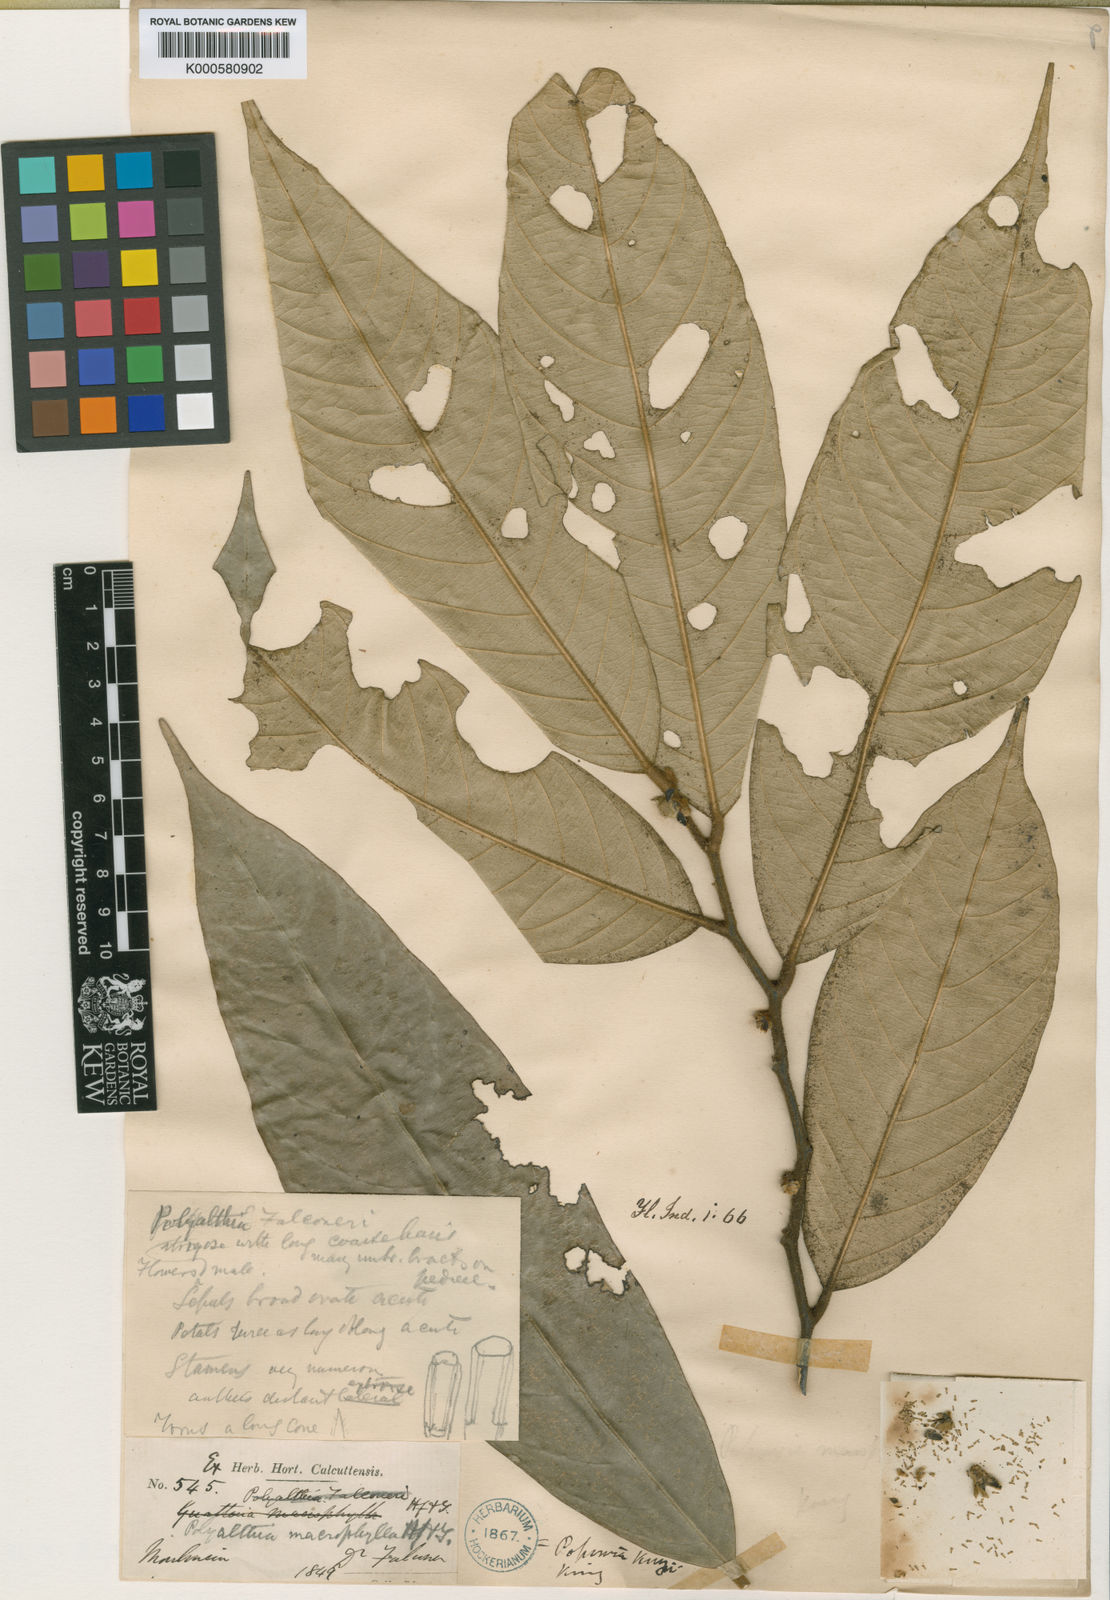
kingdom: Plantae
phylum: Tracheophyta
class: Magnoliopsida
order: Magnoliales
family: Annonaceae
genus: Trivalvaria
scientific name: Trivalvaria dubia
